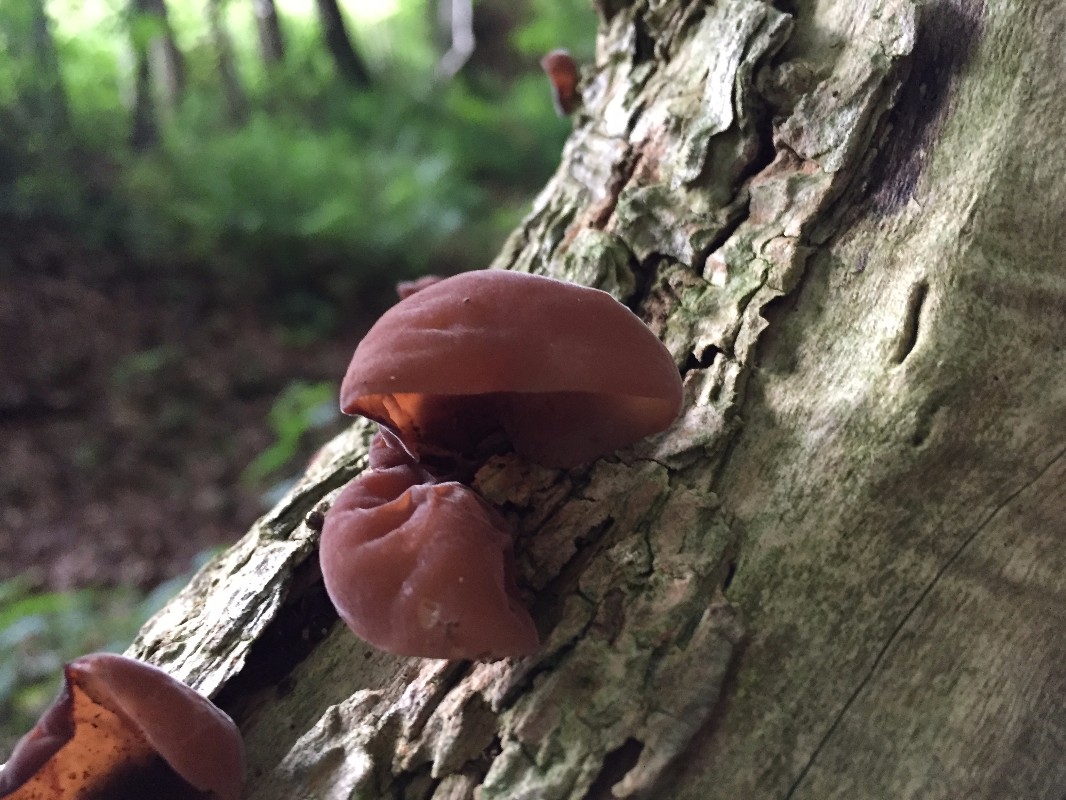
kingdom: Fungi
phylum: Basidiomycota
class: Agaricomycetes
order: Auriculariales
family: Auriculariaceae
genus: Auricularia
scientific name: Auricularia auricula-judae
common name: almindelig judasøre
